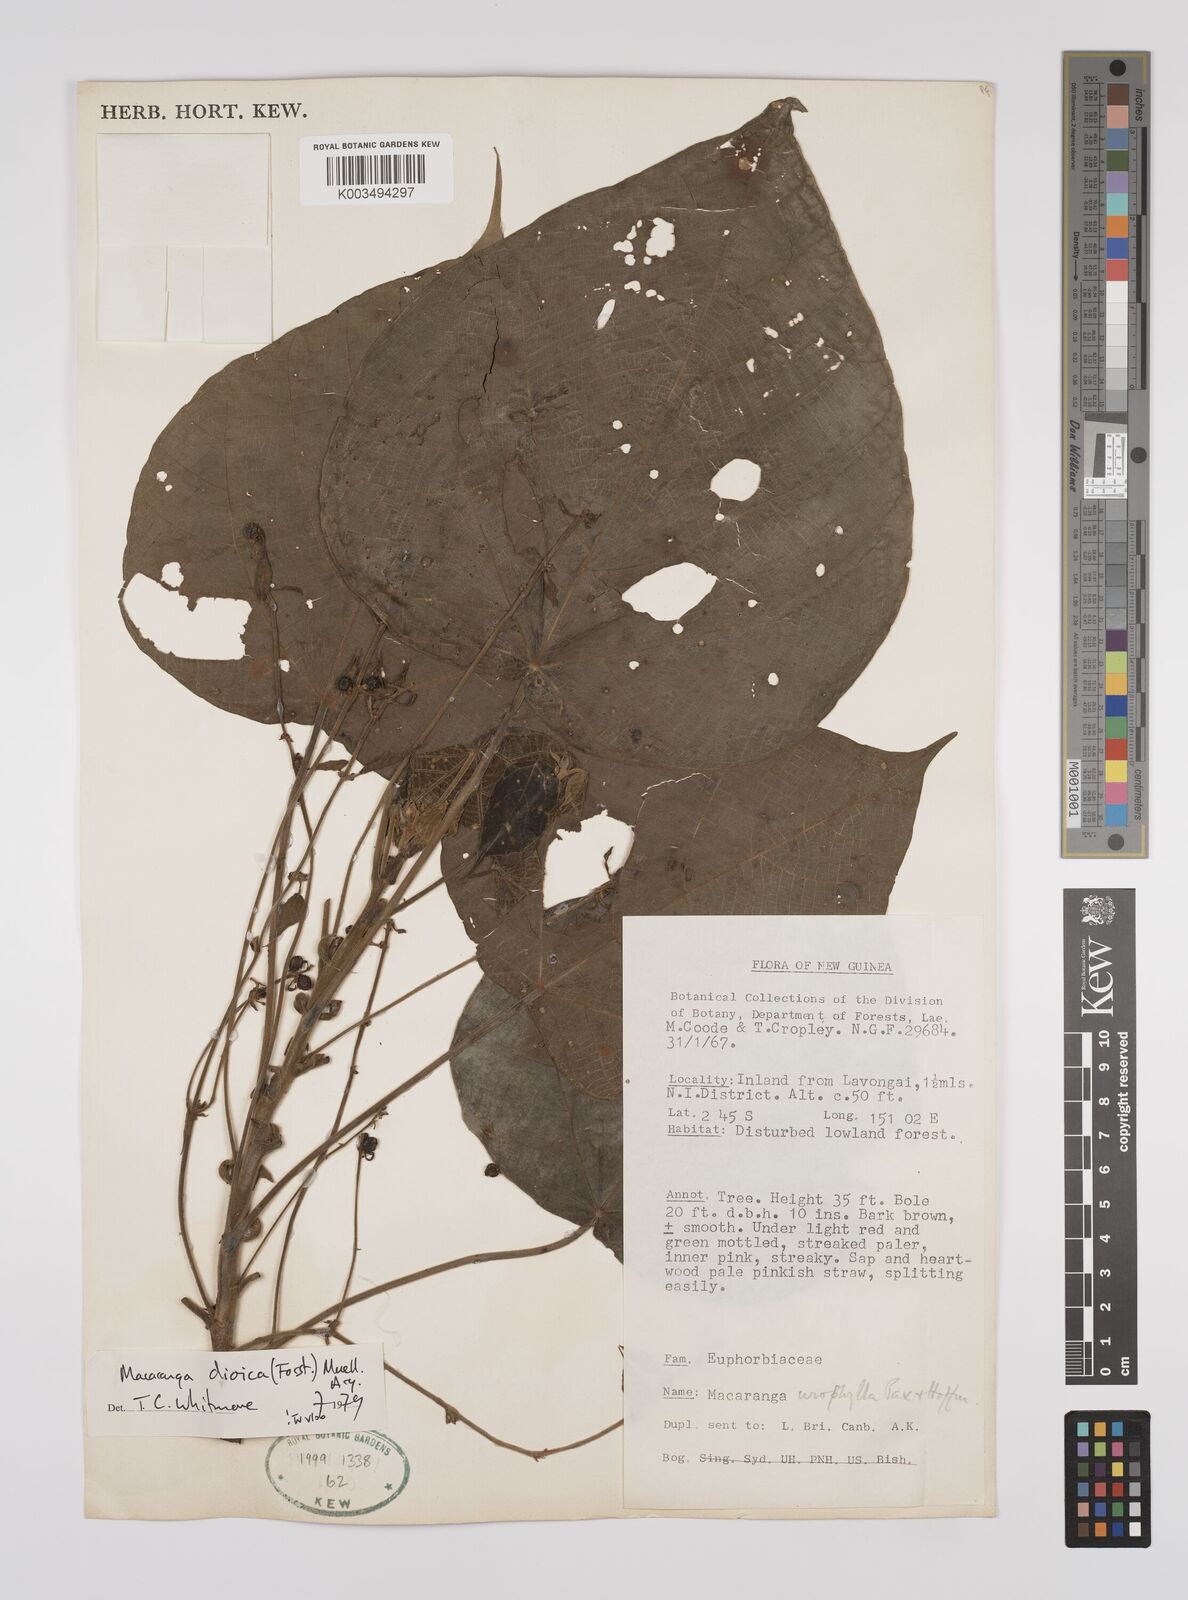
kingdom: Plantae
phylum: Tracheophyta
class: Magnoliopsida
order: Malpighiales
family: Euphorbiaceae
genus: Macaranga
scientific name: Macaranga dioica
